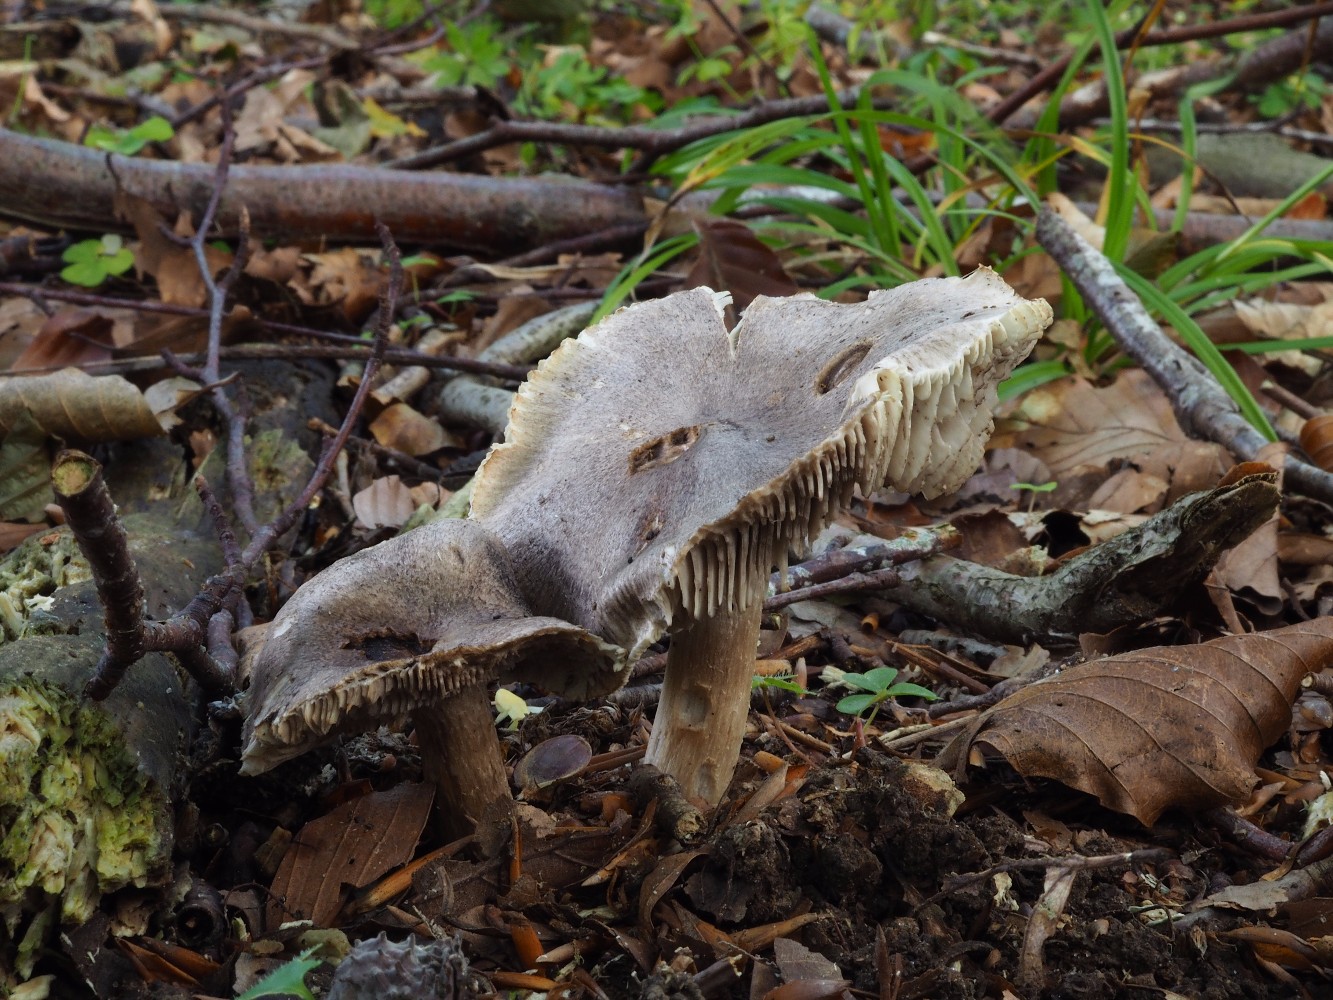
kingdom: Fungi
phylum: Basidiomycota
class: Agaricomycetes
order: Agaricales
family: Tricholomataceae
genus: Tricholoma
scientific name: Tricholoma sciodes
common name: stribet ridderhat
